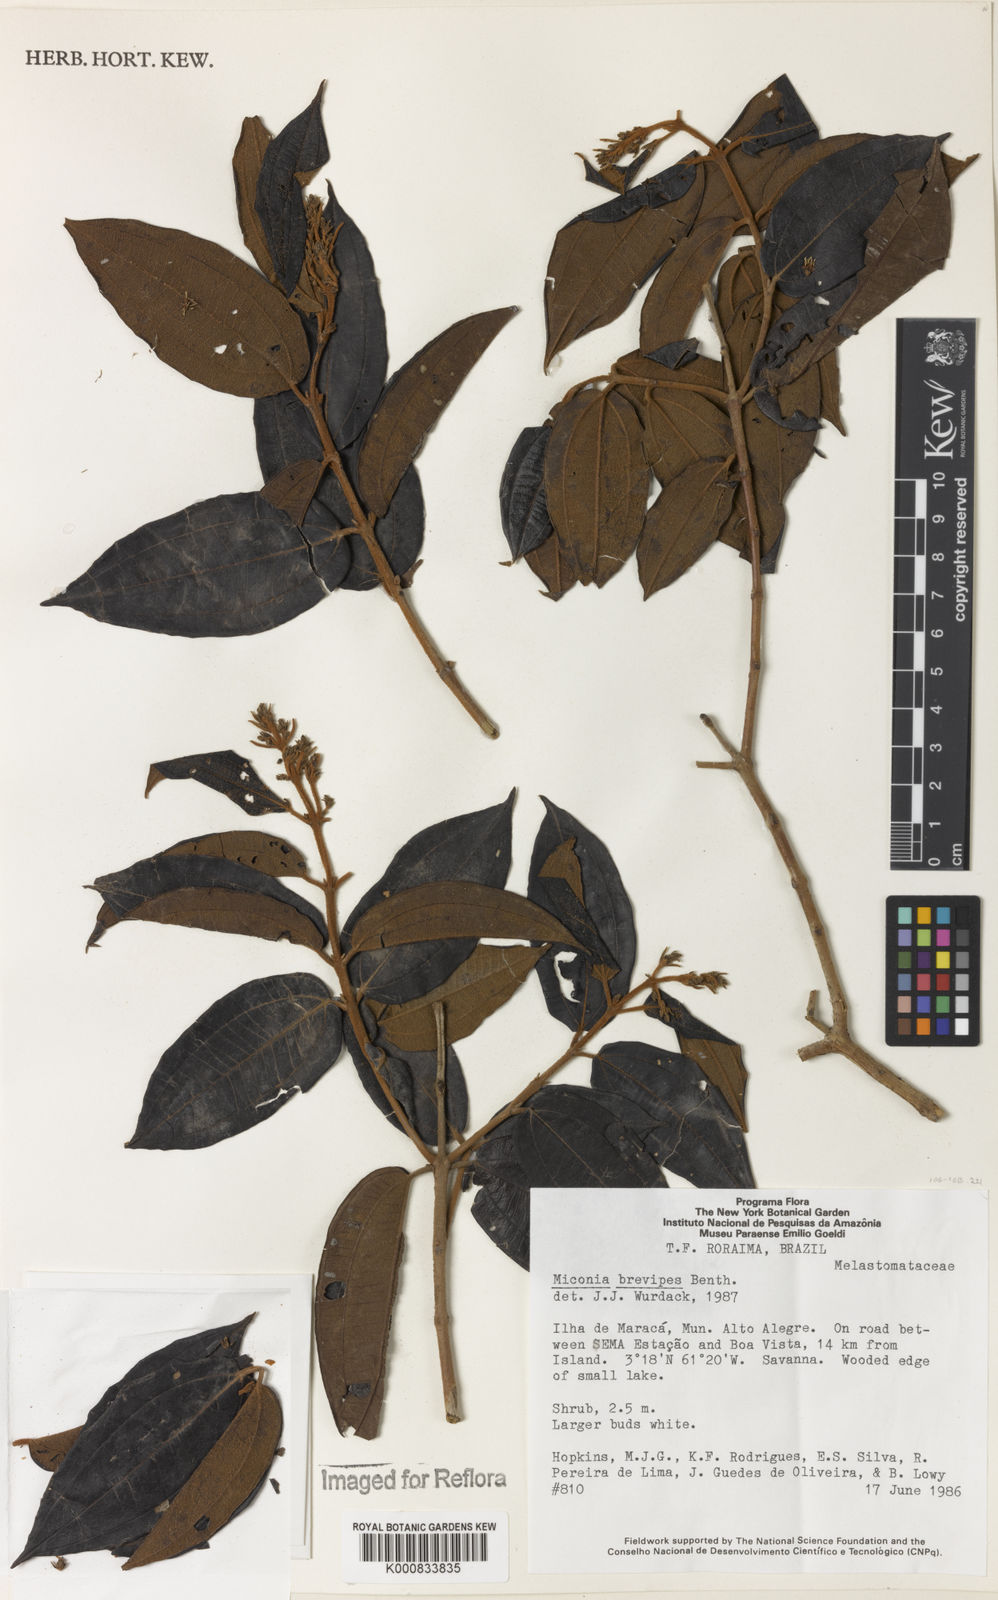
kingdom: Plantae
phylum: Tracheophyta
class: Magnoliopsida
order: Myrtales
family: Melastomataceae
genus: Miconia
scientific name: Miconia brevipes
